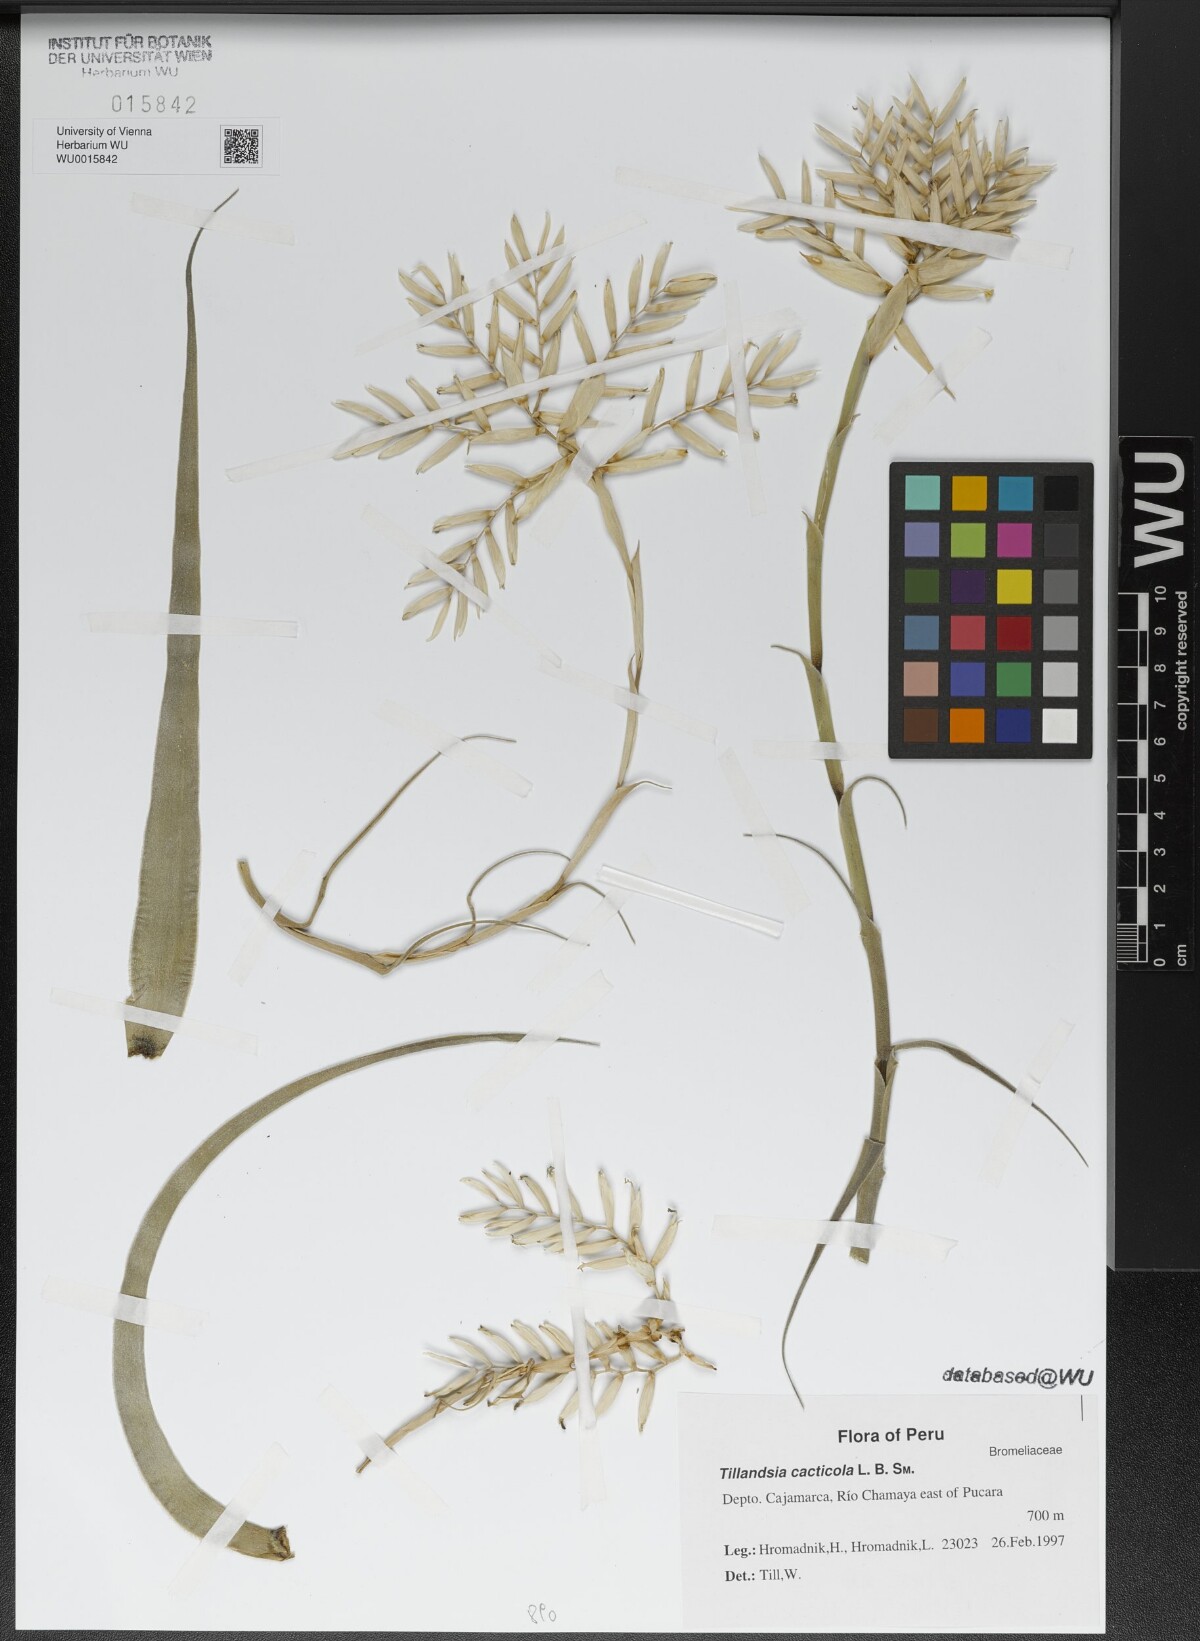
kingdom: Plantae
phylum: Tracheophyta
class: Liliopsida
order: Poales
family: Bromeliaceae
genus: Tillandsia
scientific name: Tillandsia cacticola
